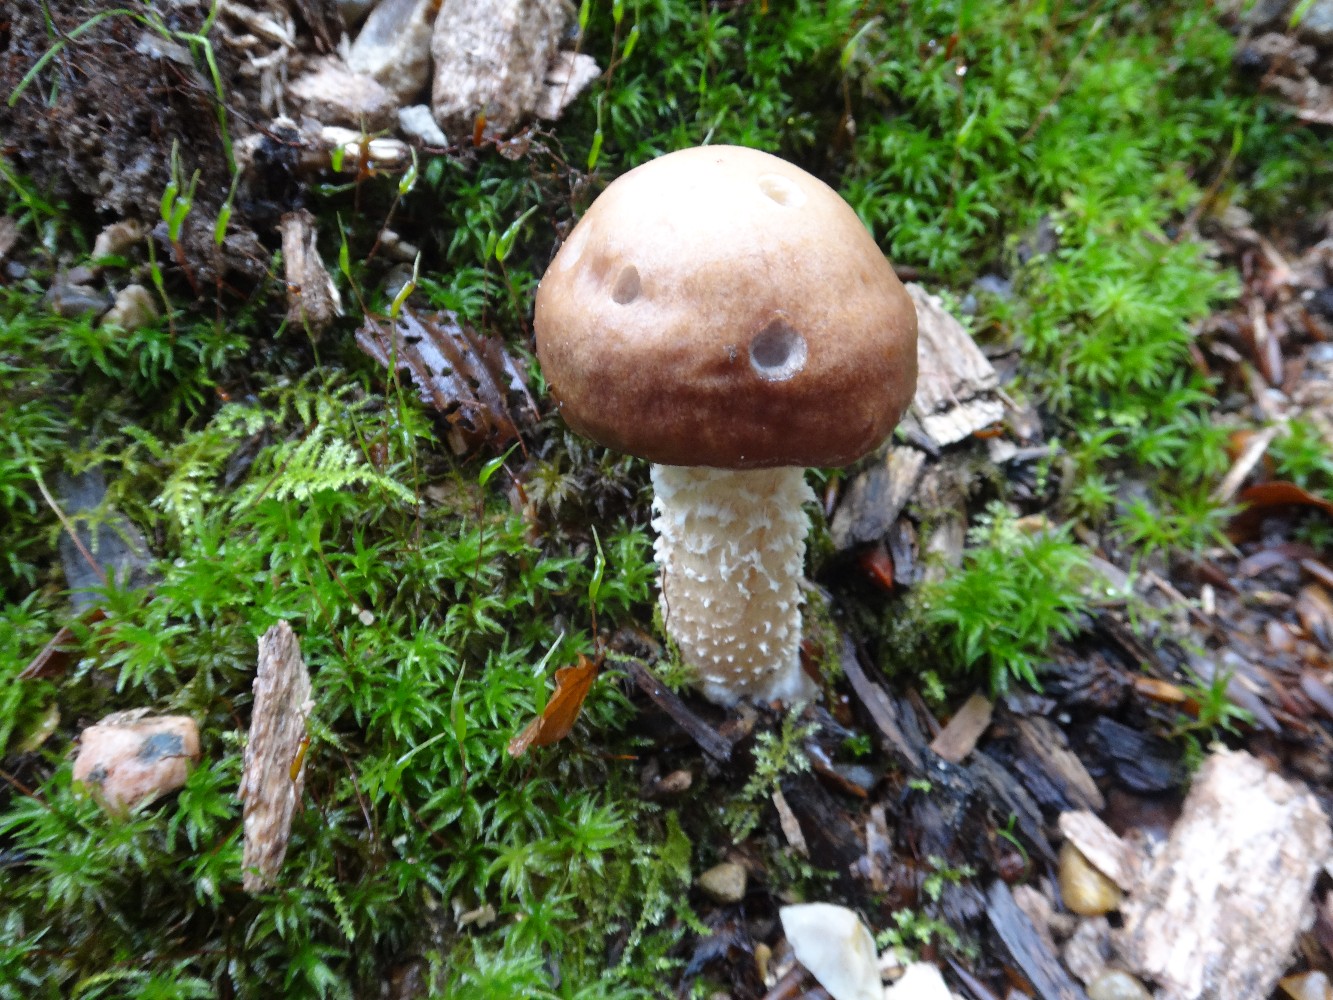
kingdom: Fungi
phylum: Basidiomycota
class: Agaricomycetes
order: Agaricales
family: Strophariaceae
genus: Stropharia
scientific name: Stropharia hornemannii
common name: nordisk bredblad
